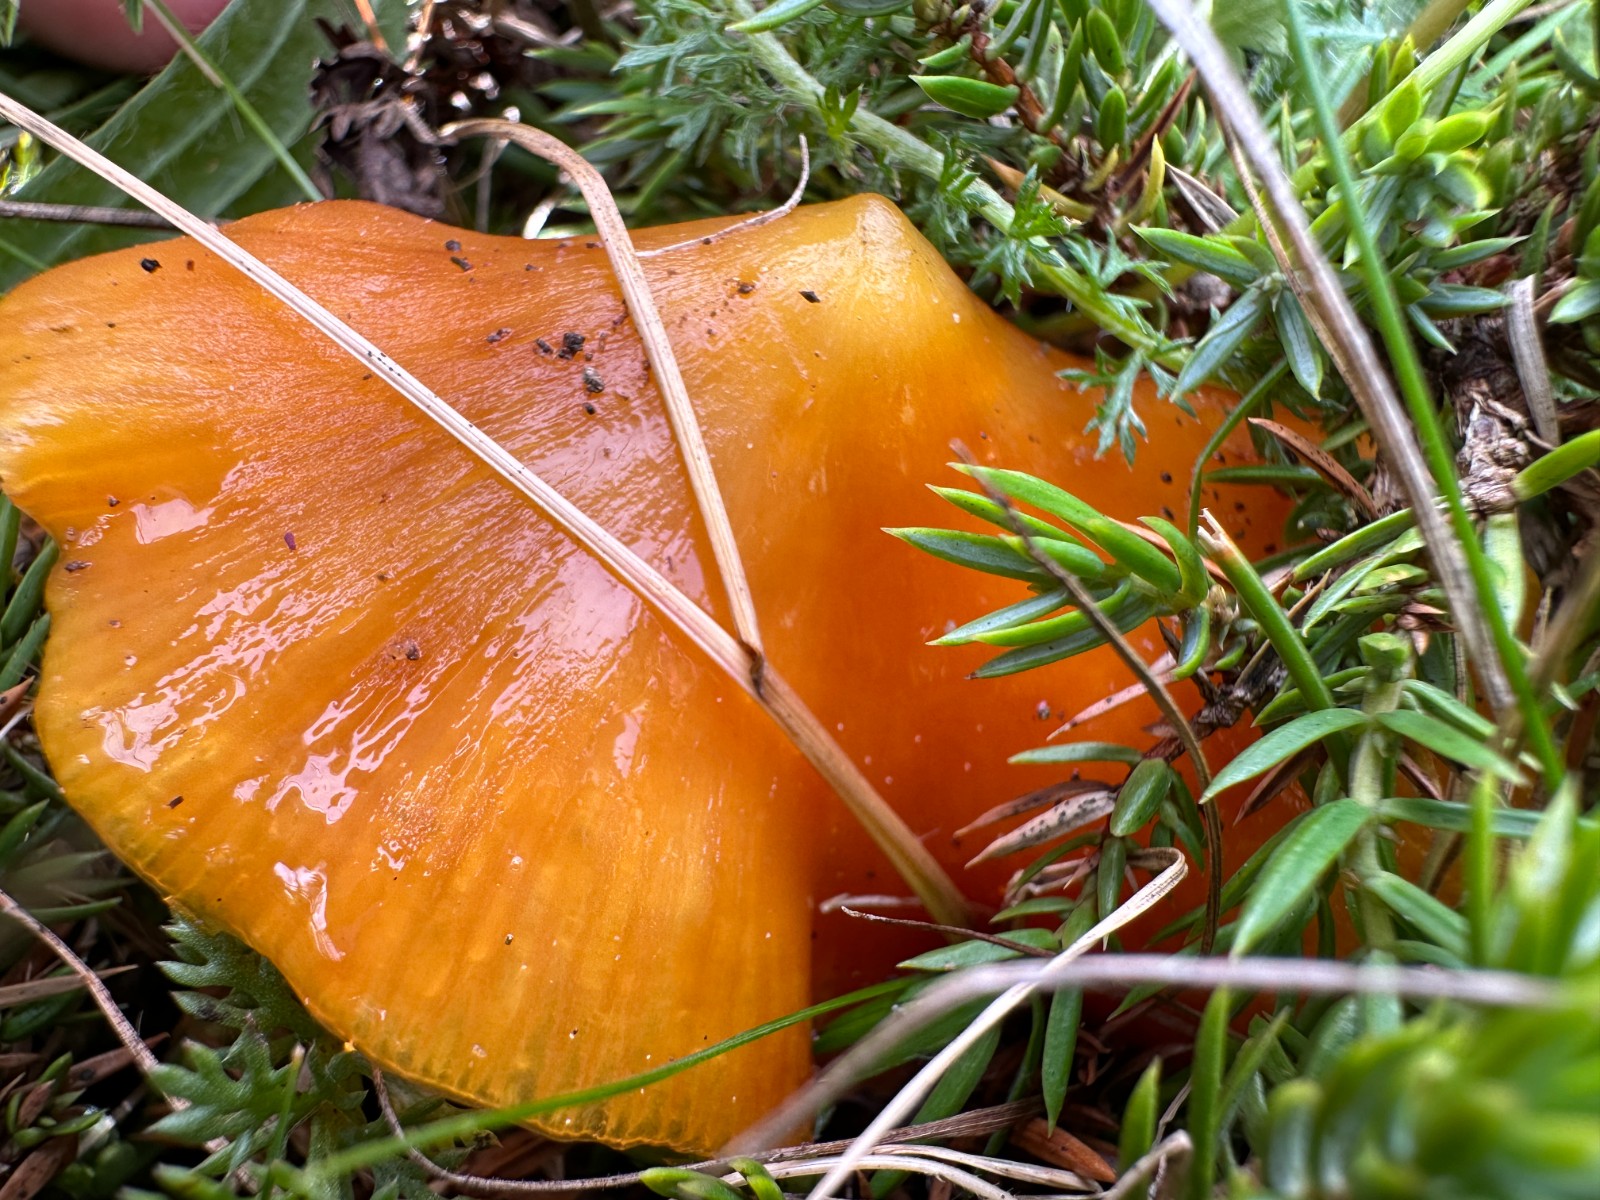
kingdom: Fungi
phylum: Basidiomycota
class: Agaricomycetes
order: Agaricales
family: Hygrophoraceae
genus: Hygrocybe
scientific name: Hygrocybe acutoconica
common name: spidspuklet vokshat
